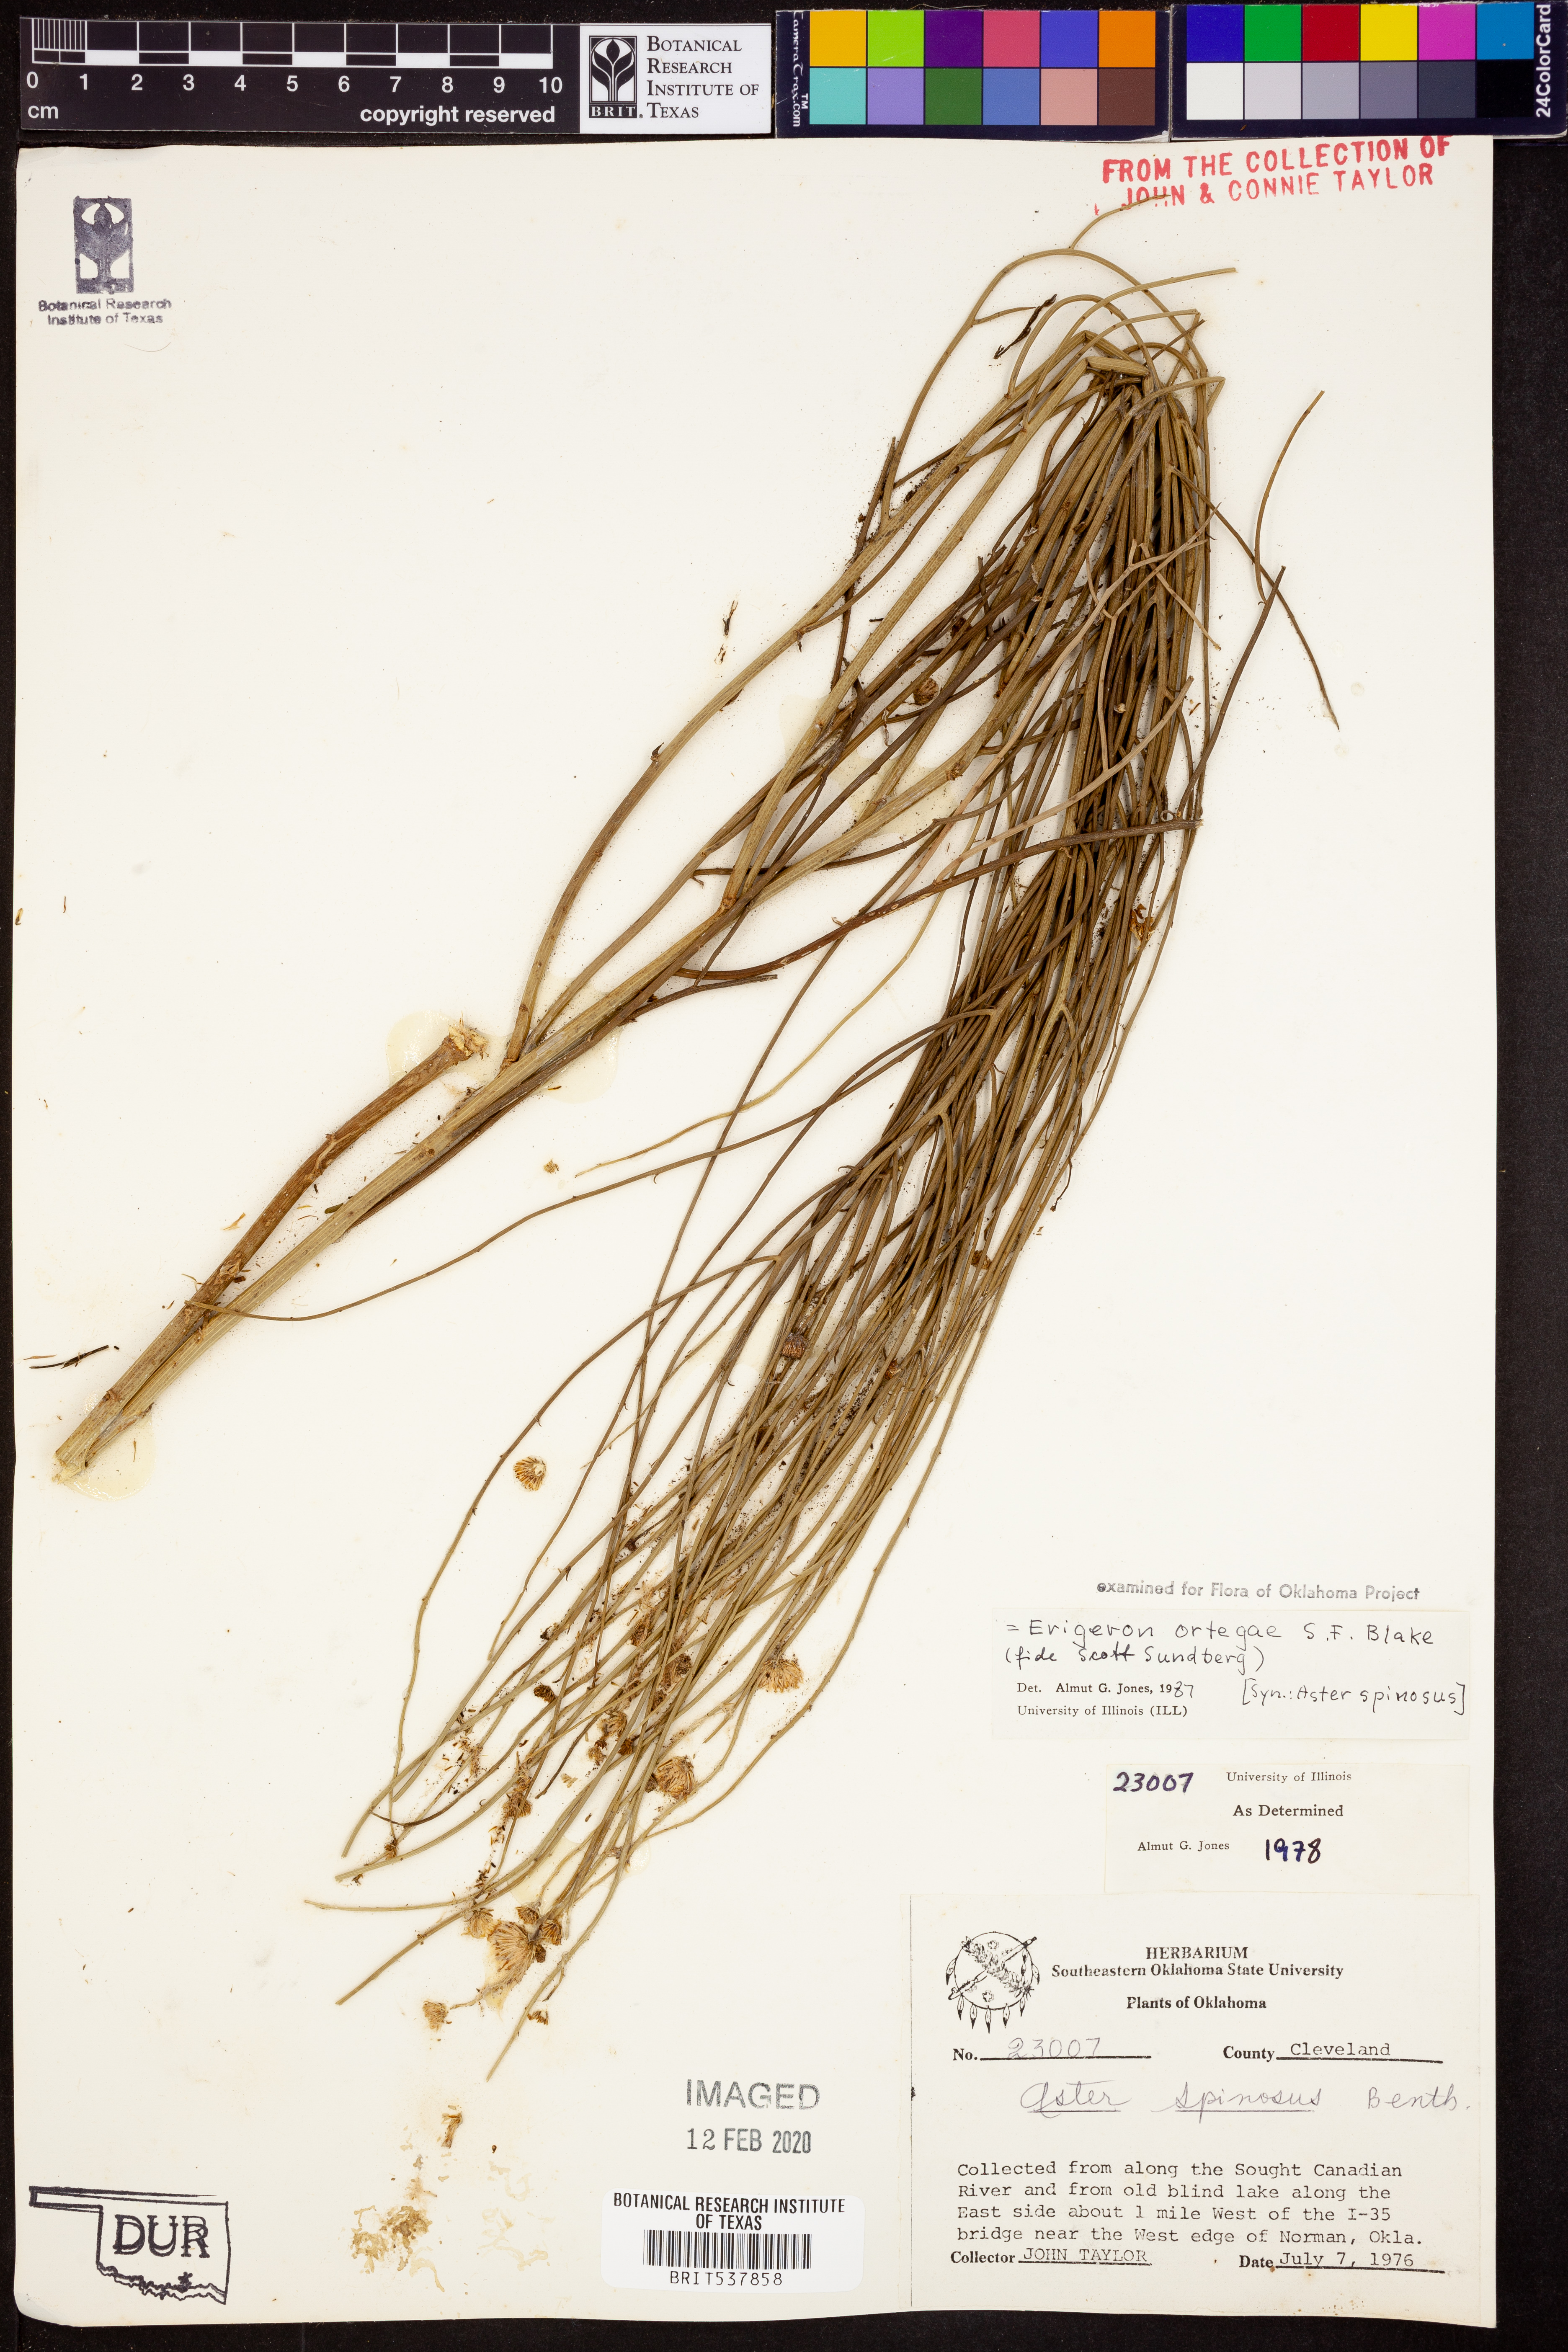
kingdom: Plantae
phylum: Tracheophyta
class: Magnoliopsida
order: Asterales
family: Asteraceae
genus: Chloracantha
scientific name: Chloracantha ortegae
